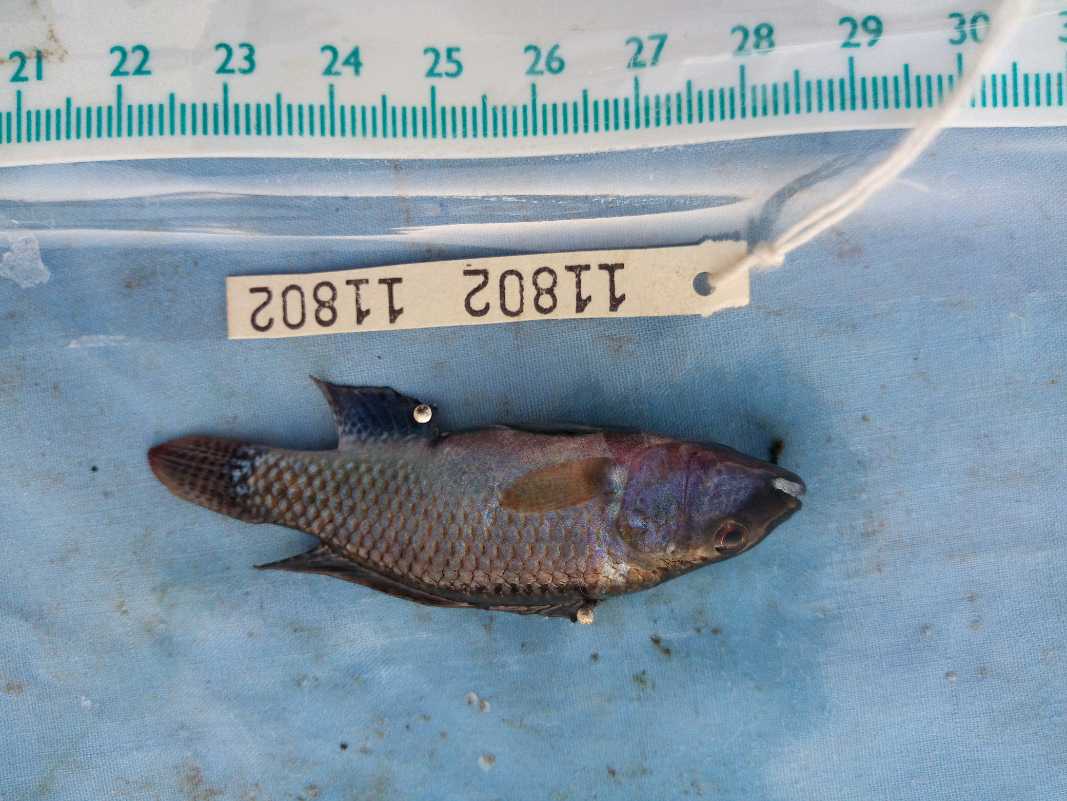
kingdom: Animalia
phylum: Chordata
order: Perciformes
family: Cichlidae
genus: Alcolapia
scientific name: Alcolapia grahami
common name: Lake magadi tilapia
